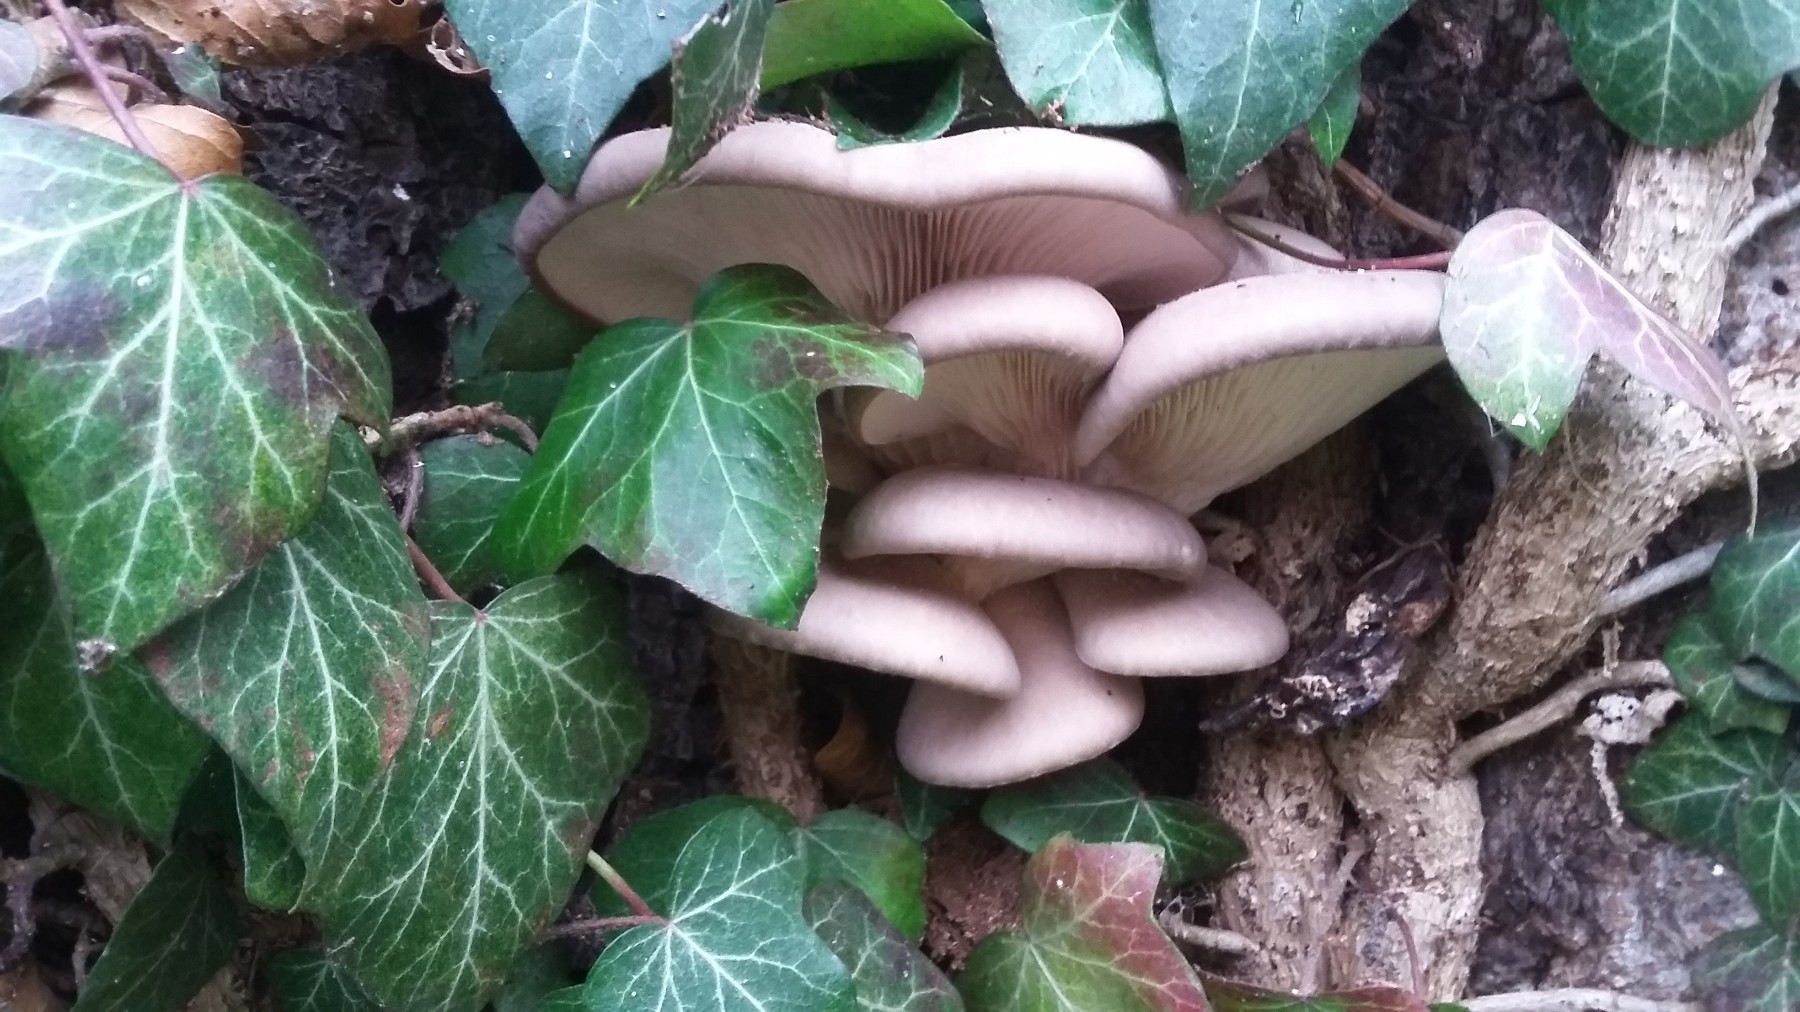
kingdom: Fungi
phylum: Basidiomycota
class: Agaricomycetes
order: Agaricales
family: Pleurotaceae
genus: Pleurotus
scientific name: Pleurotus ostreatus
